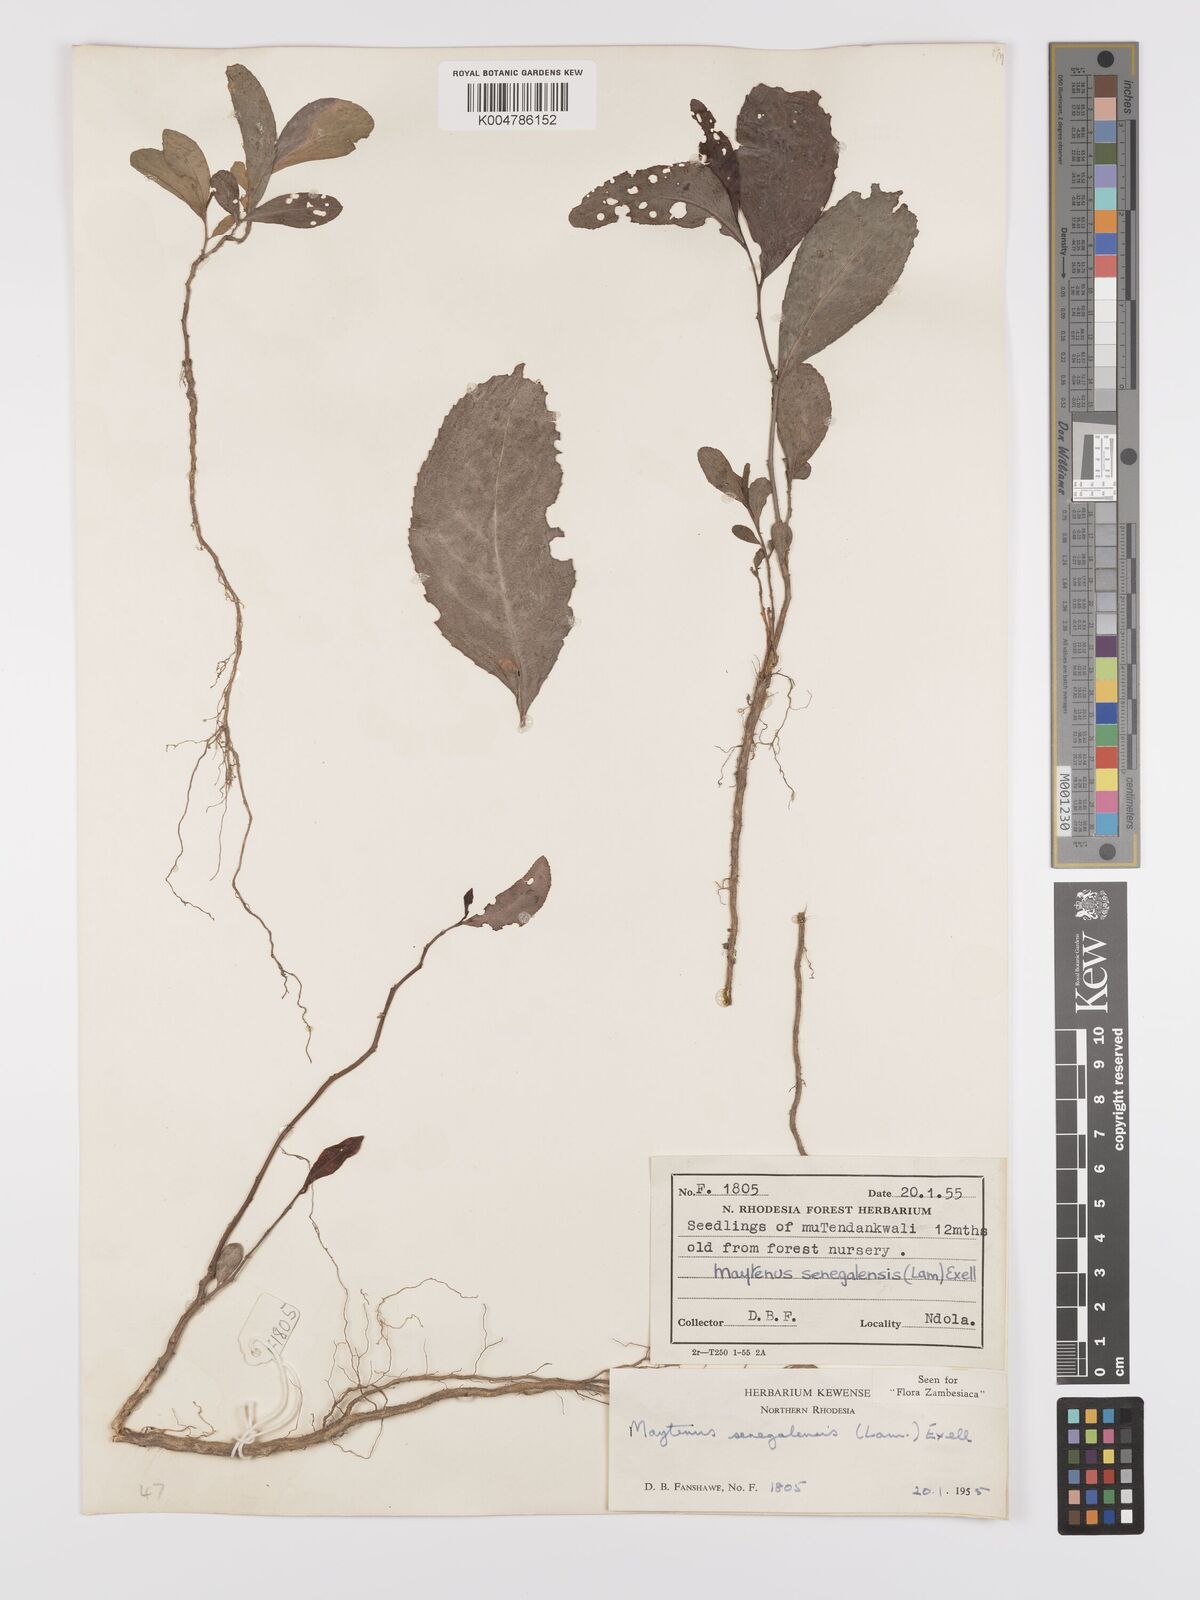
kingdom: Plantae
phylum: Tracheophyta
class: Magnoliopsida
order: Celastrales
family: Celastraceae
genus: Gymnosporia
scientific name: Gymnosporia senegalensis
